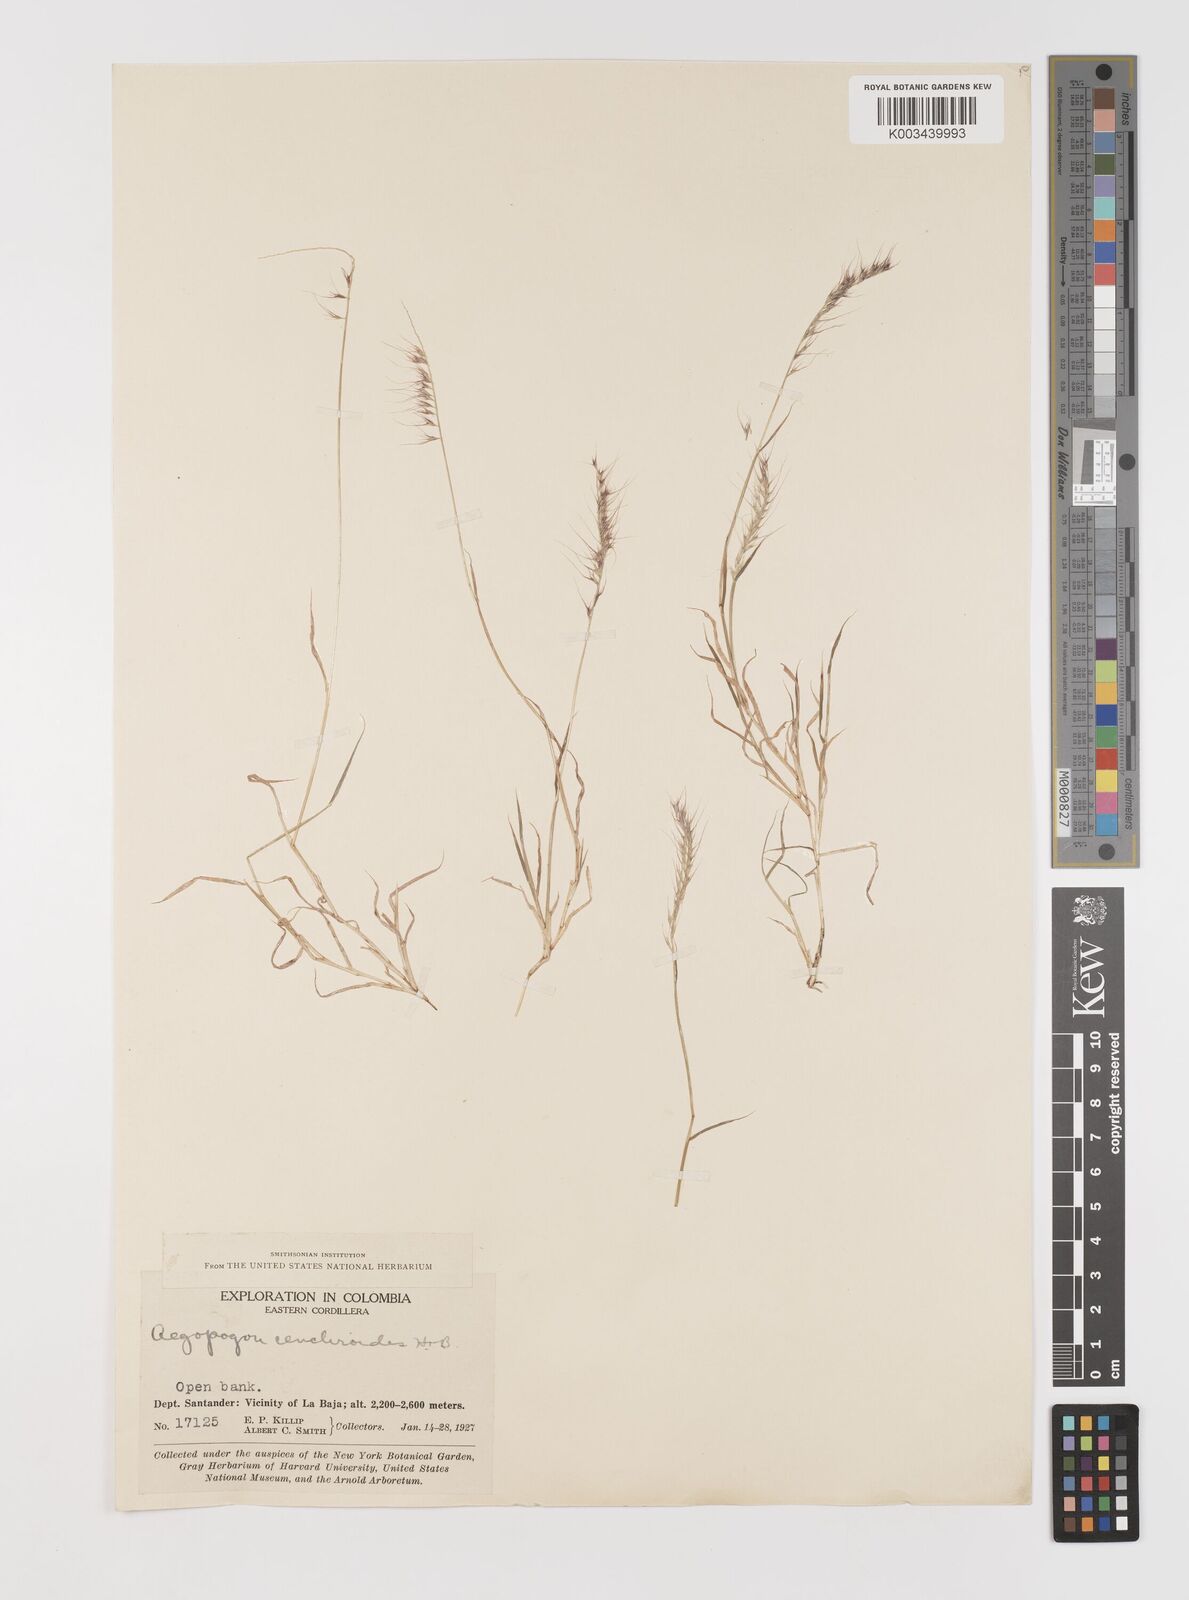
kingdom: Plantae
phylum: Tracheophyta
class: Liliopsida
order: Poales
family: Poaceae
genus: Muhlenbergia
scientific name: Muhlenbergia cenchroides
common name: Relaxgrass
